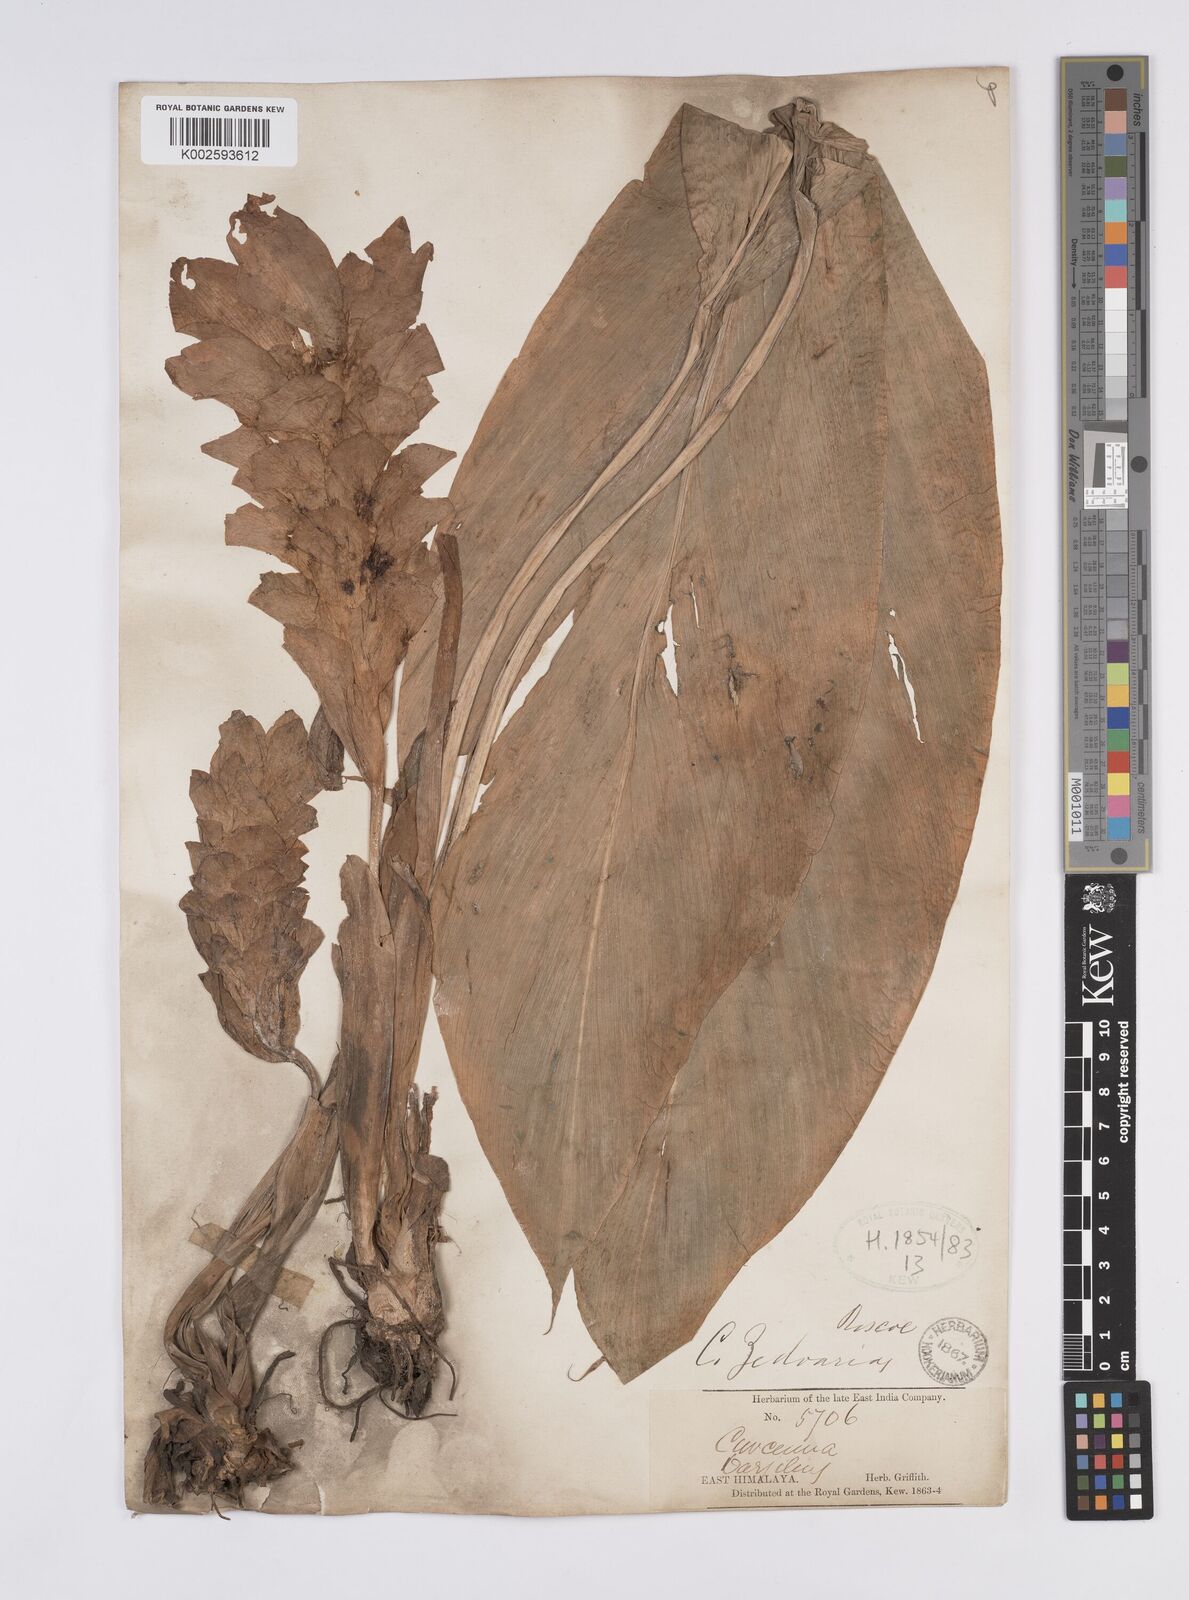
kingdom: Plantae
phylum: Tracheophyta
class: Liliopsida
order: Zingiberales
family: Zingiberaceae
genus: Curcuma
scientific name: Curcuma
